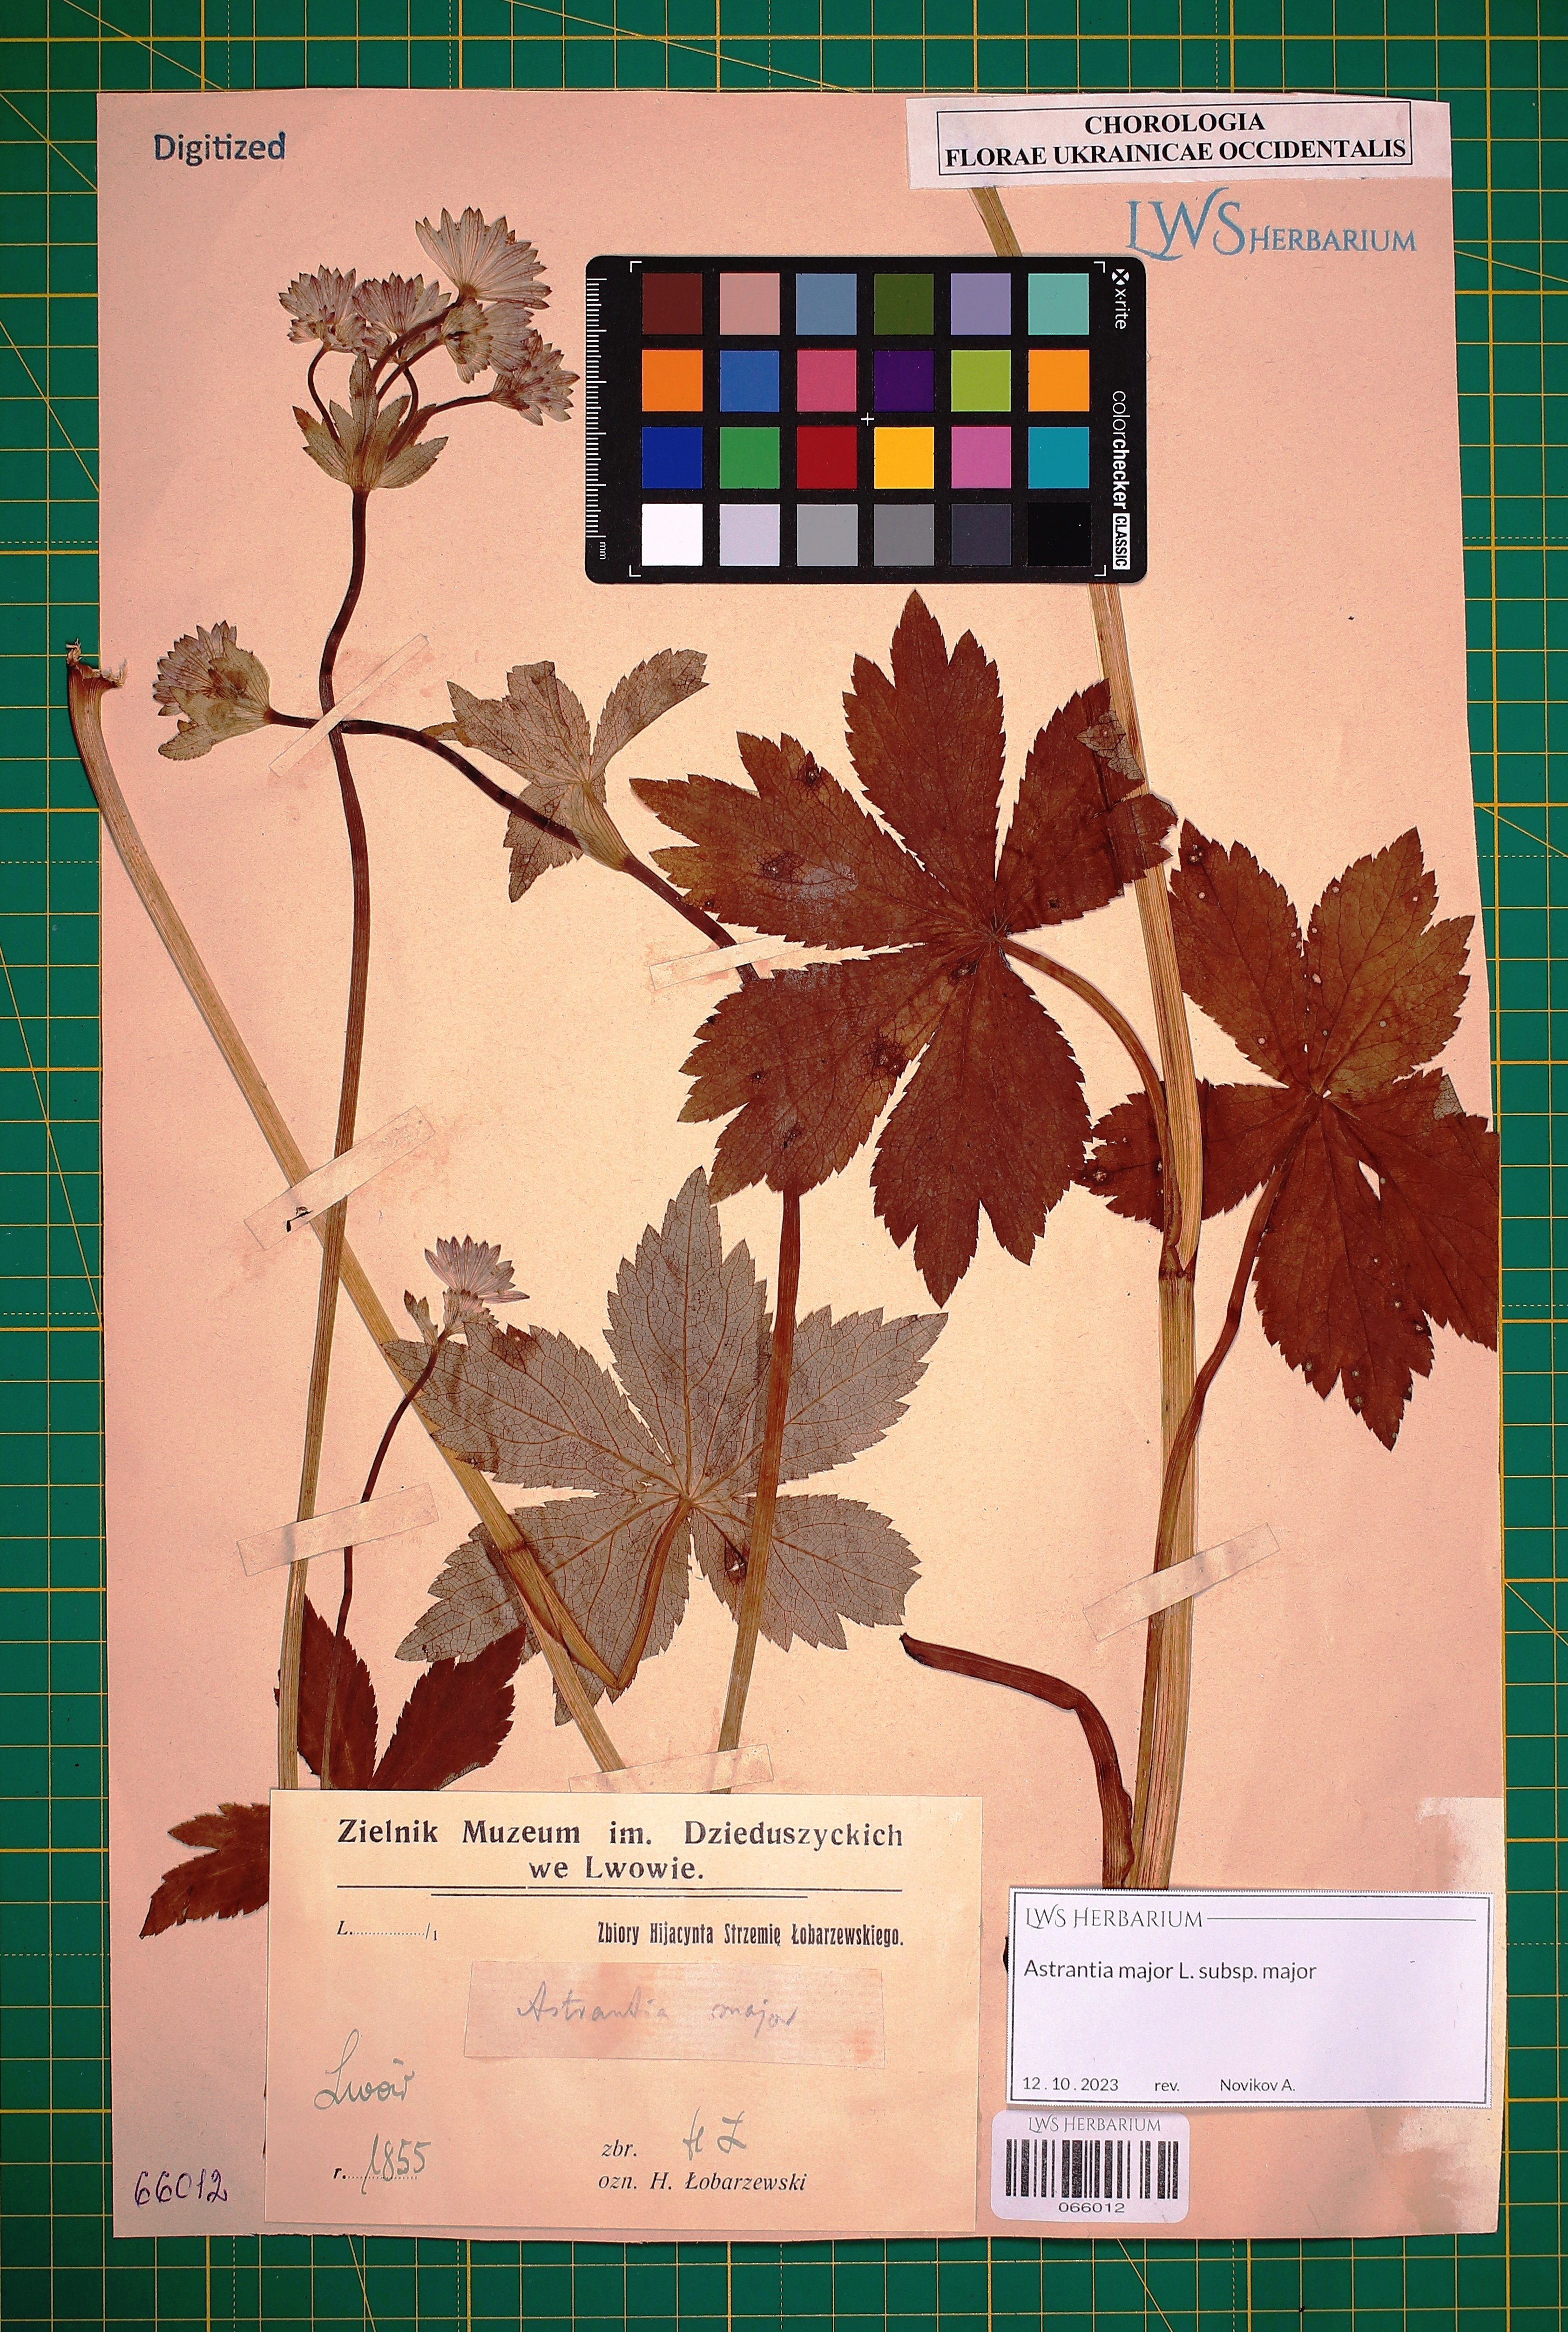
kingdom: Plantae
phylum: Tracheophyta
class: Magnoliopsida
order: Apiales
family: Apiaceae
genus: Astrantia
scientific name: Astrantia major
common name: Greater masterwort
